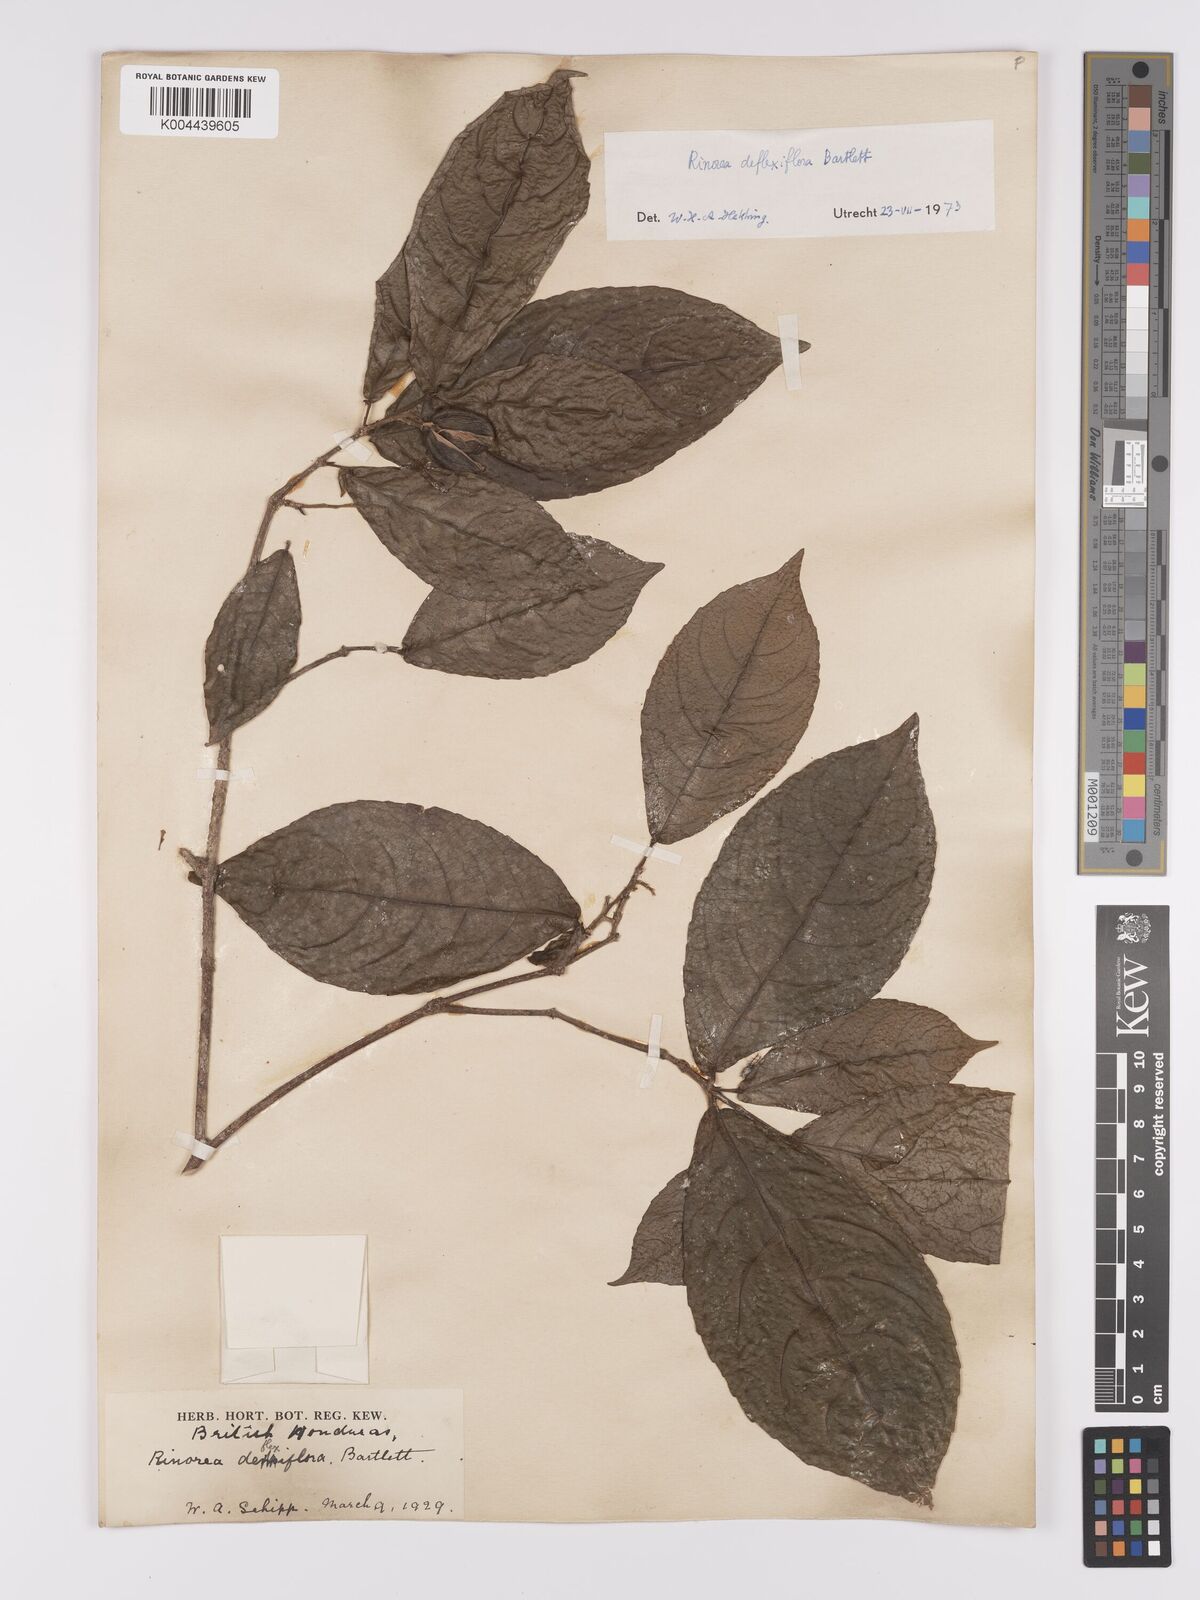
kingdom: Plantae
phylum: Tracheophyta
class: Magnoliopsida
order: Malpighiales
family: Violaceae
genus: Rinorea
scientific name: Rinorea deflexiflora
